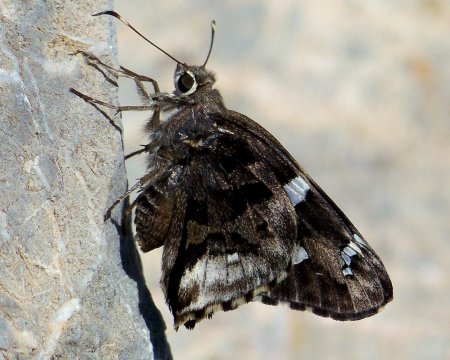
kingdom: Animalia
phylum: Arthropoda
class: Insecta
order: Lepidoptera
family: Hesperiidae
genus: Codatractus
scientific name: Codatractus arizonensis
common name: Arizona Skipper
